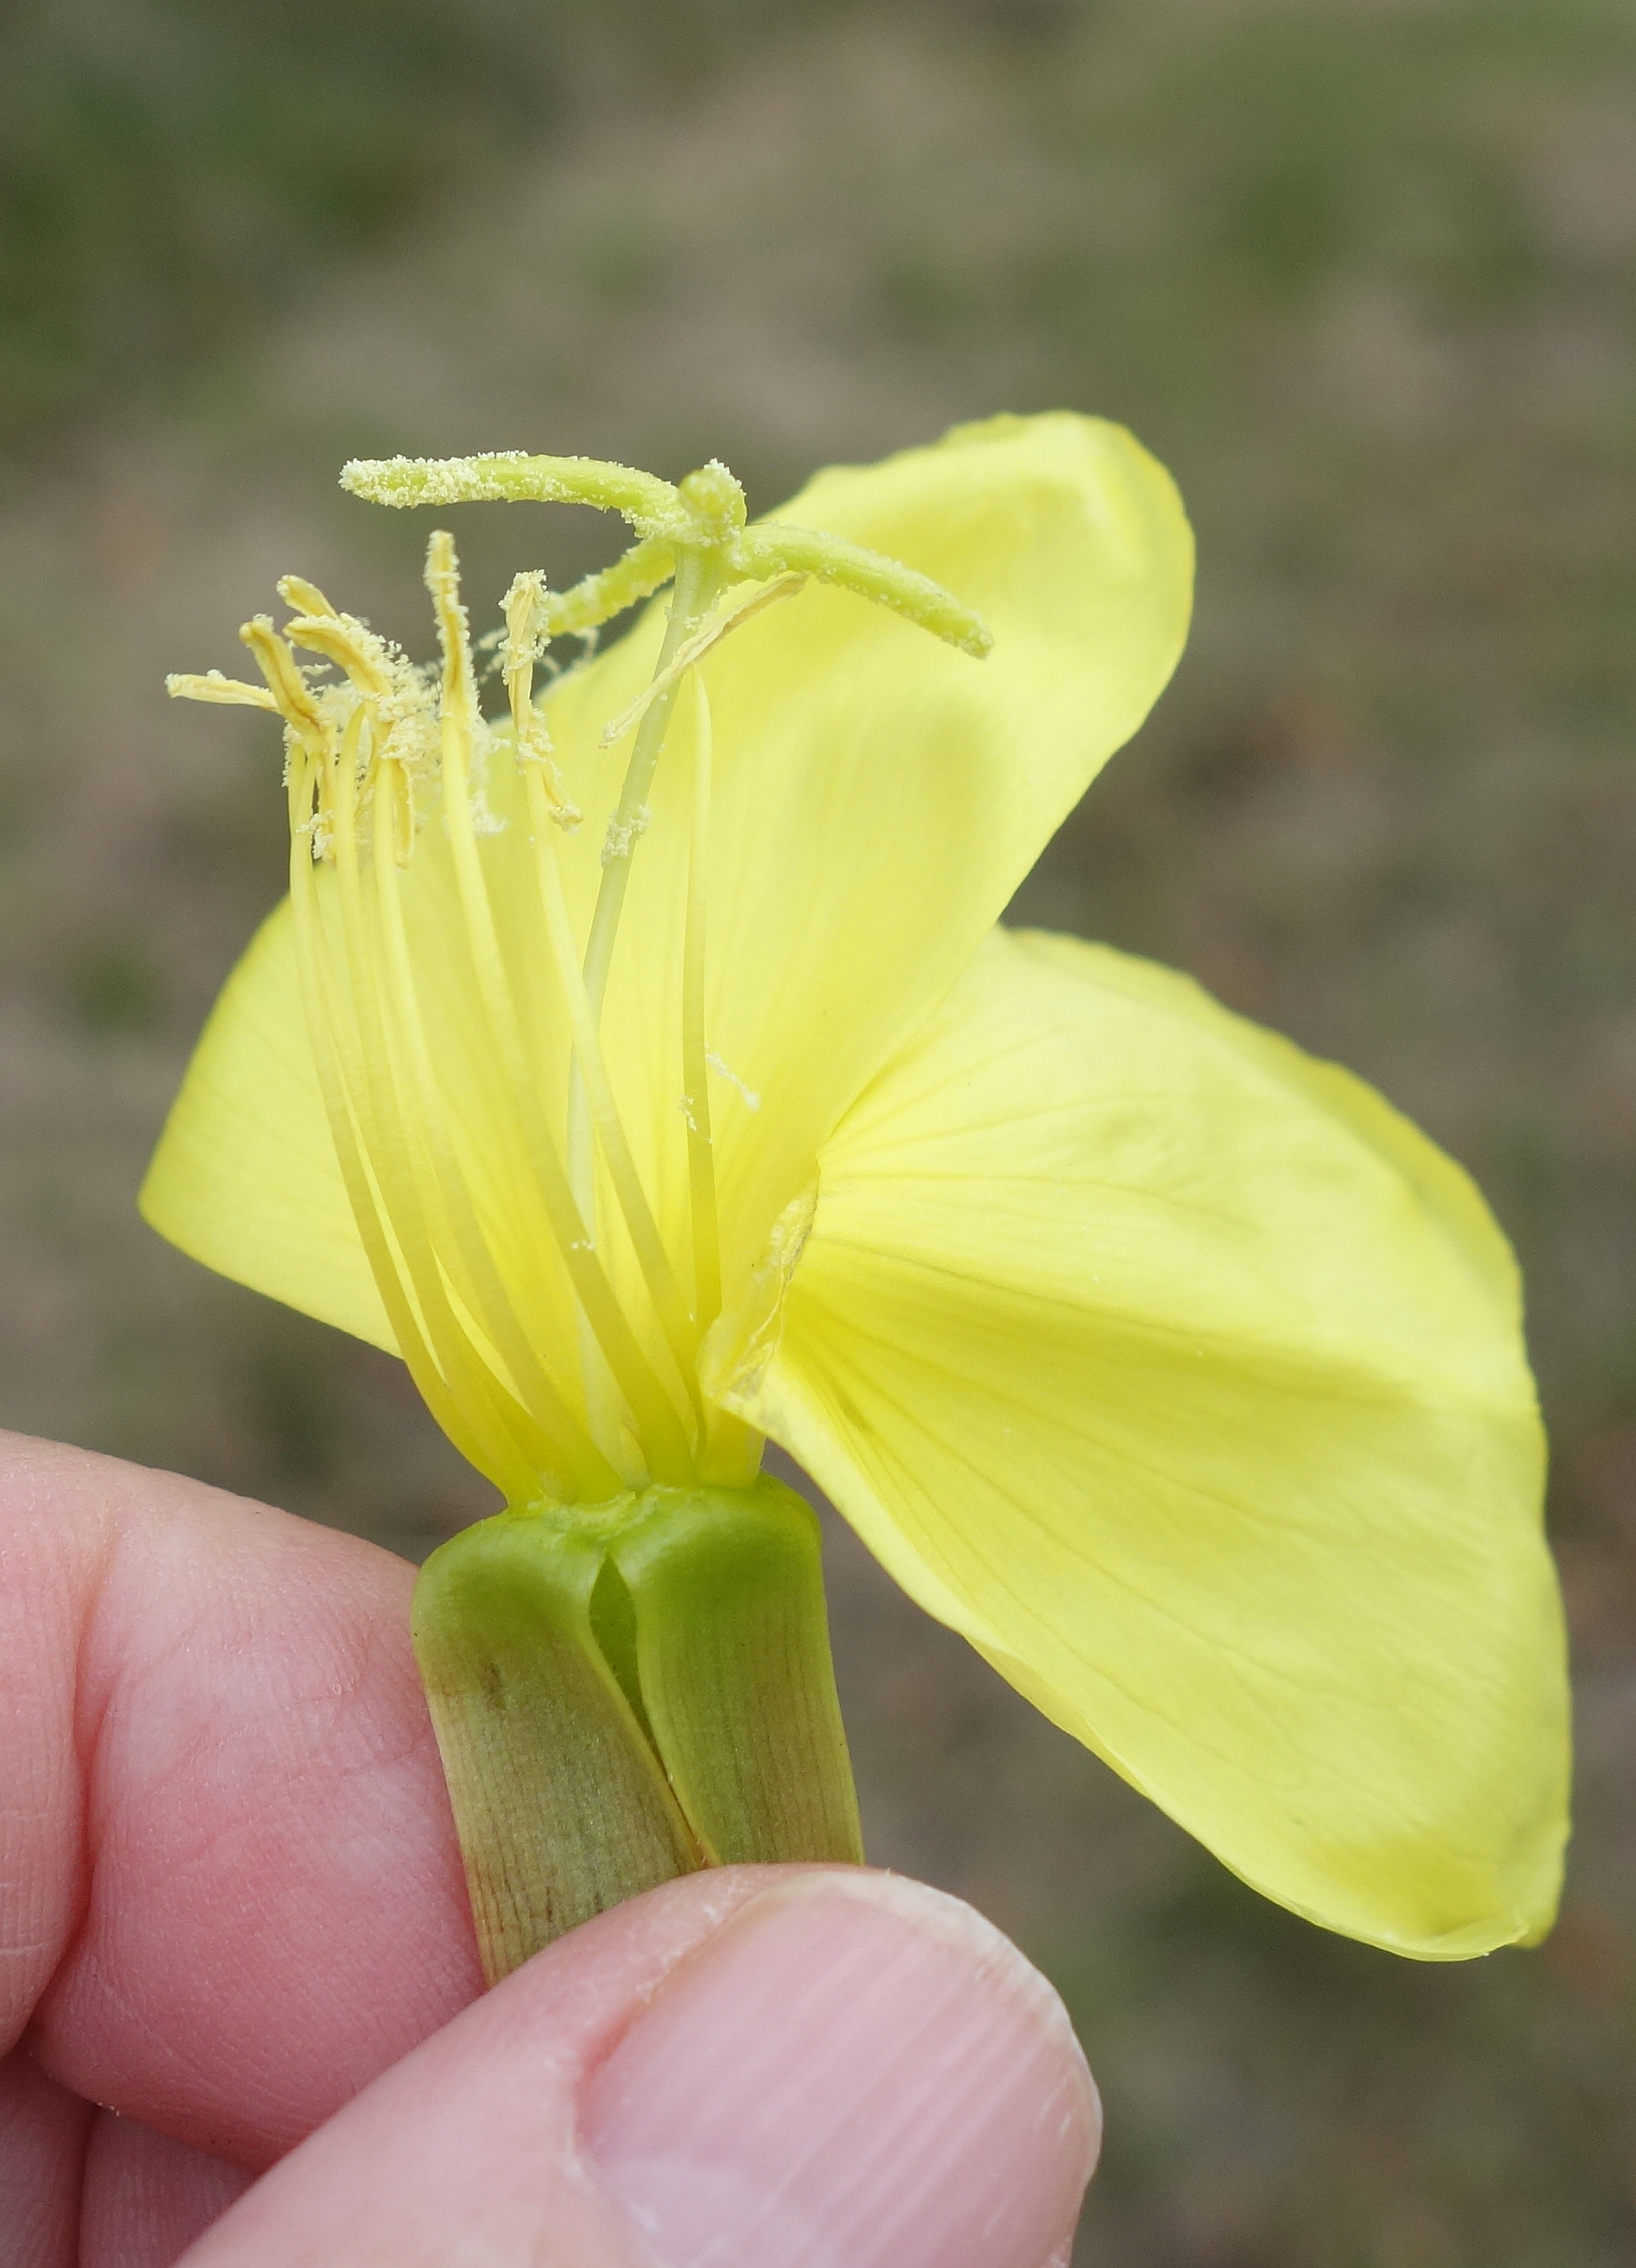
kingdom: Plantae
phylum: Tracheophyta
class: Magnoliopsida
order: Myrtales
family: Onagraceae
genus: Oenothera
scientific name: Oenothera glazioviana
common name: Kæmpe-natlys
